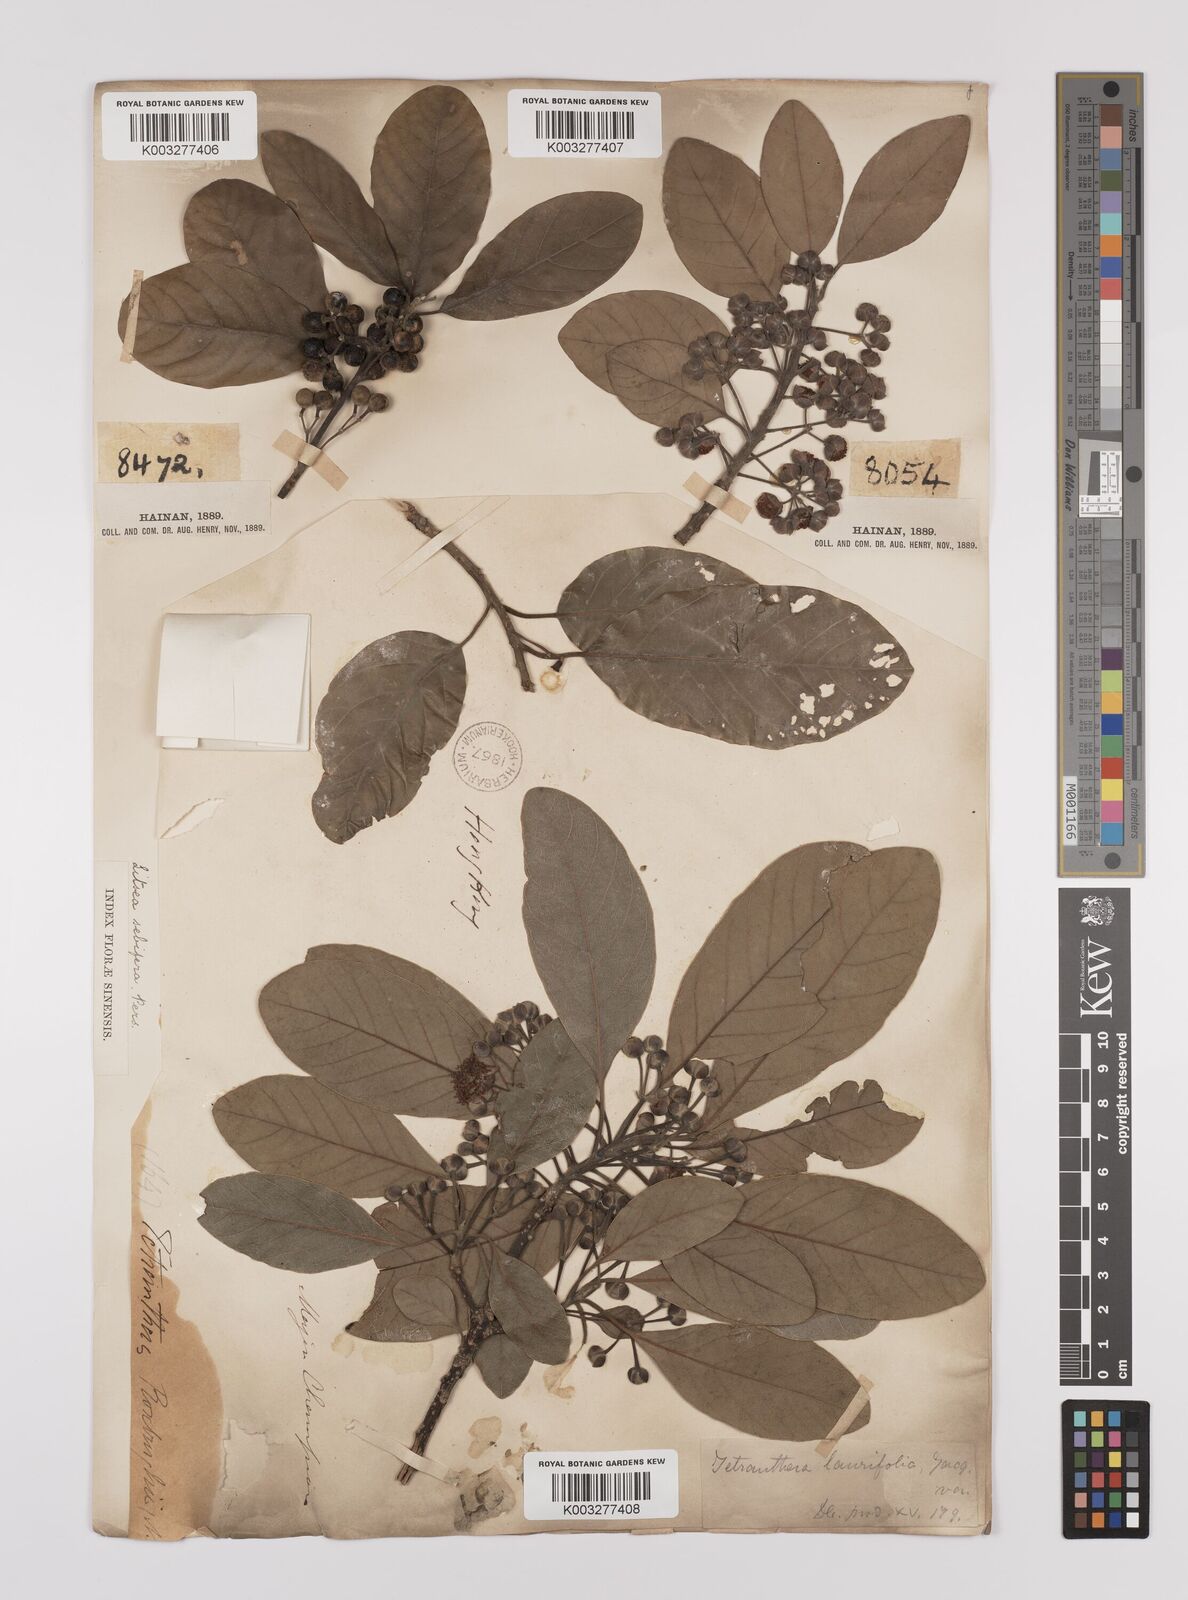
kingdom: Plantae
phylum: Tracheophyta
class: Magnoliopsida
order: Laurales
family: Lauraceae
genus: Litsea
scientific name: Litsea glutinosa
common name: Indian-laurel
